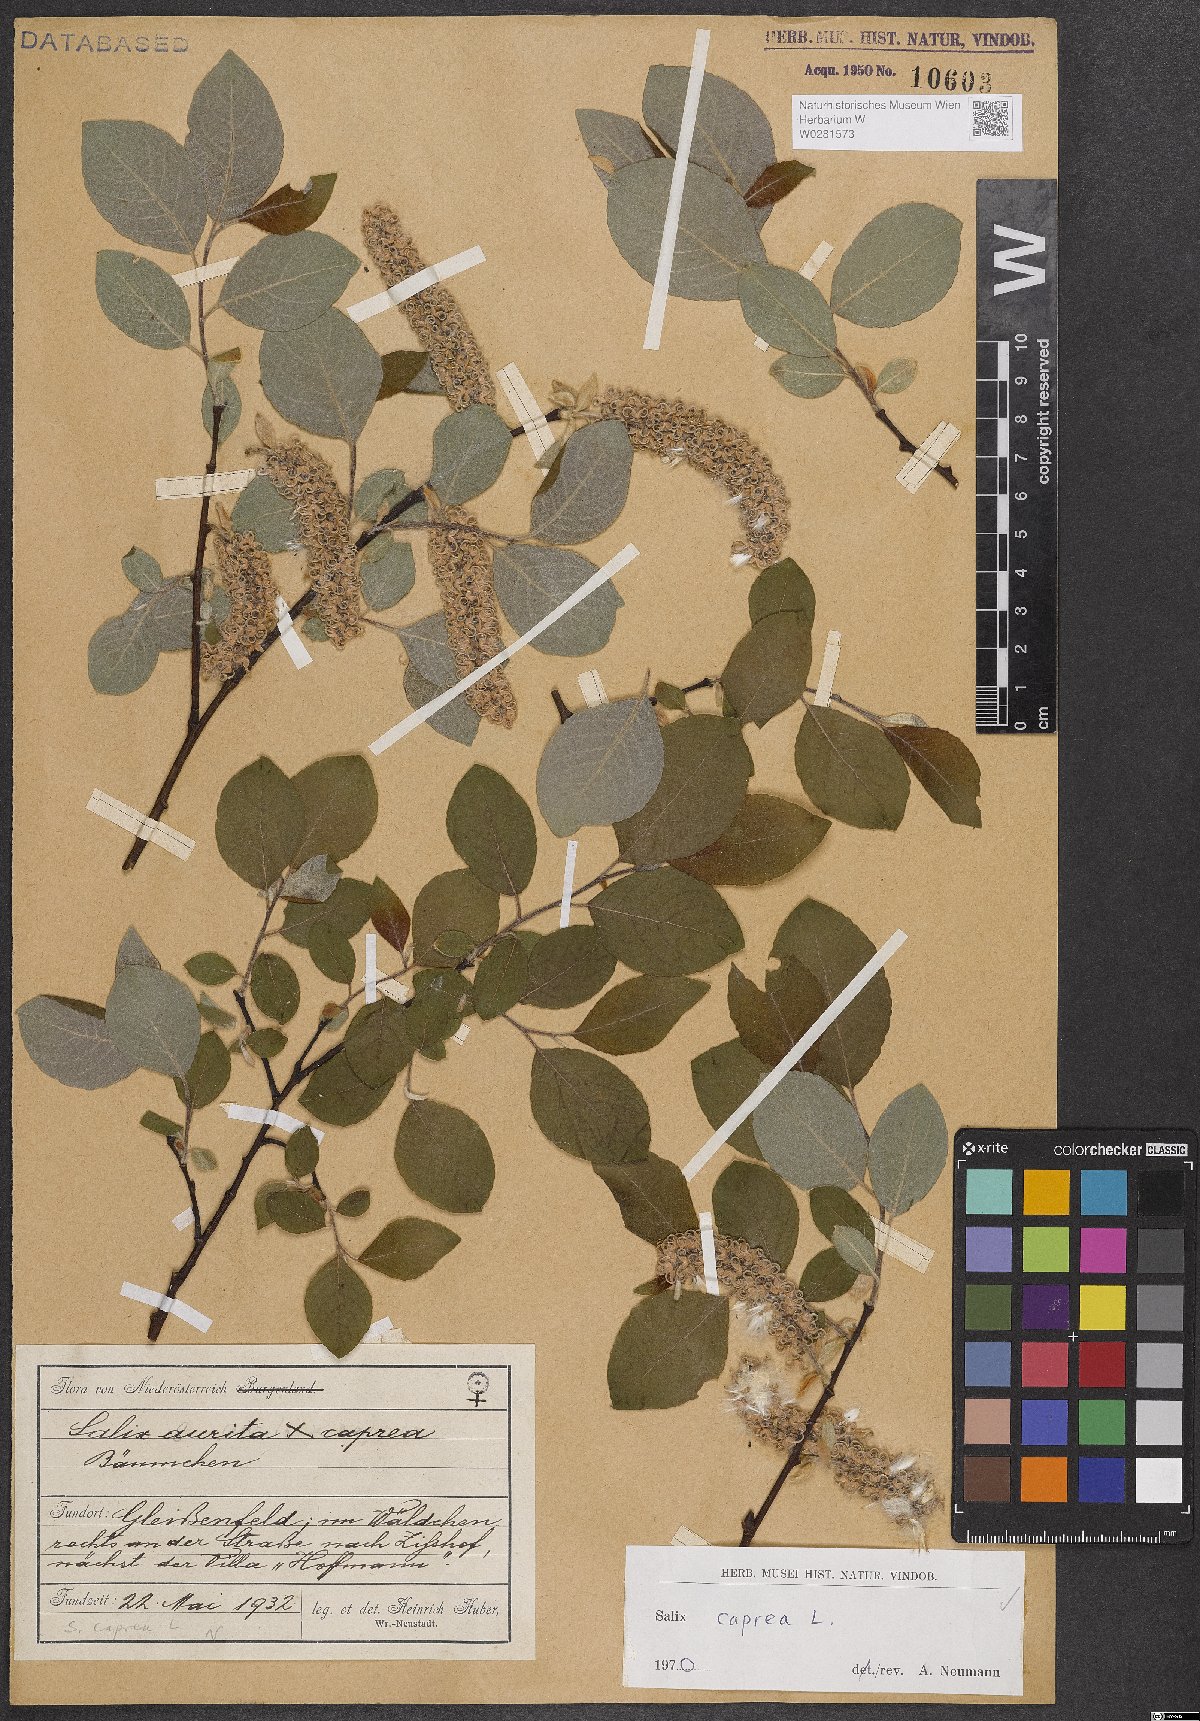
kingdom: Plantae
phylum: Tracheophyta
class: Magnoliopsida
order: Malpighiales
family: Salicaceae
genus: Salix
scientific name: Salix caprea
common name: Goat willow
